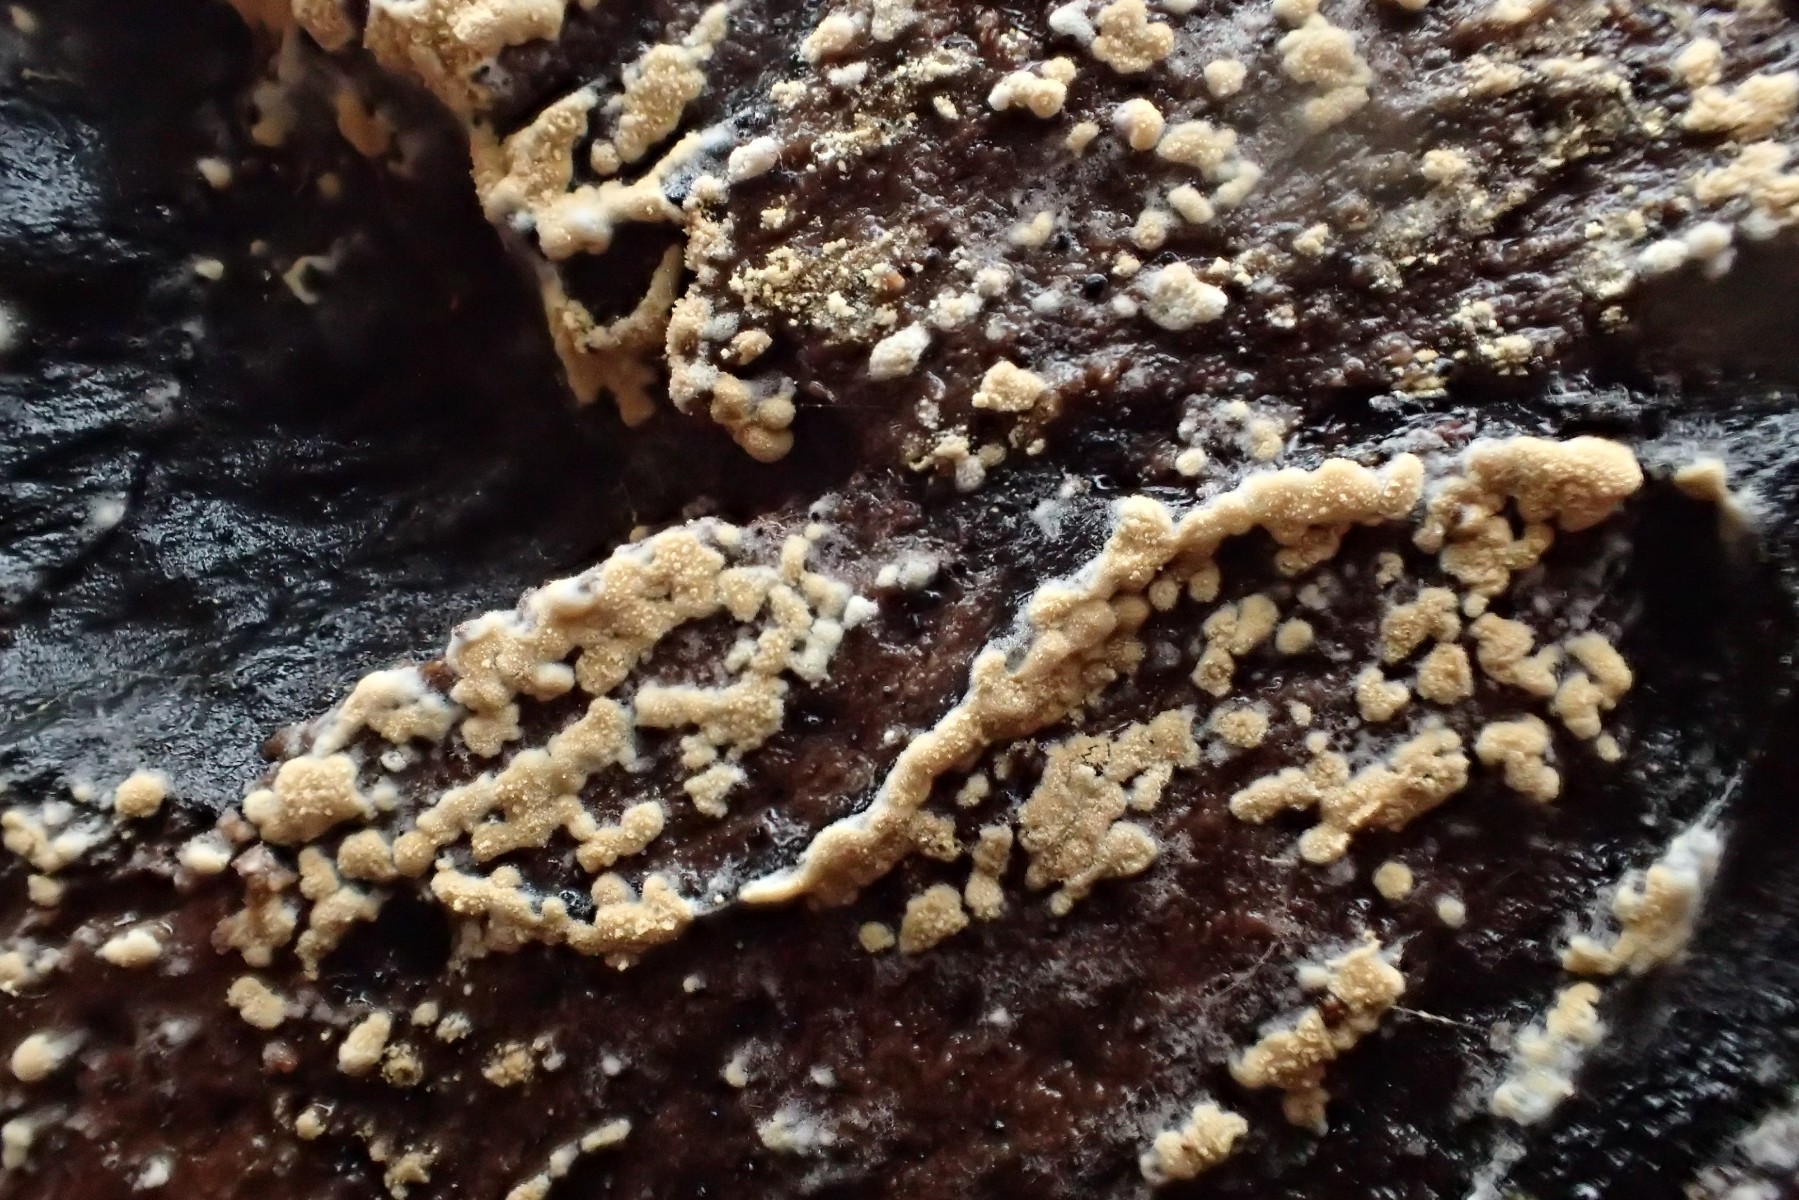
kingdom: Fungi
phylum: Basidiomycota
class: Agaricomycetes
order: Cantharellales
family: Botryobasidiaceae
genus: Botryobasidium
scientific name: Botryobasidium aureum
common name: gylden spindhinde
